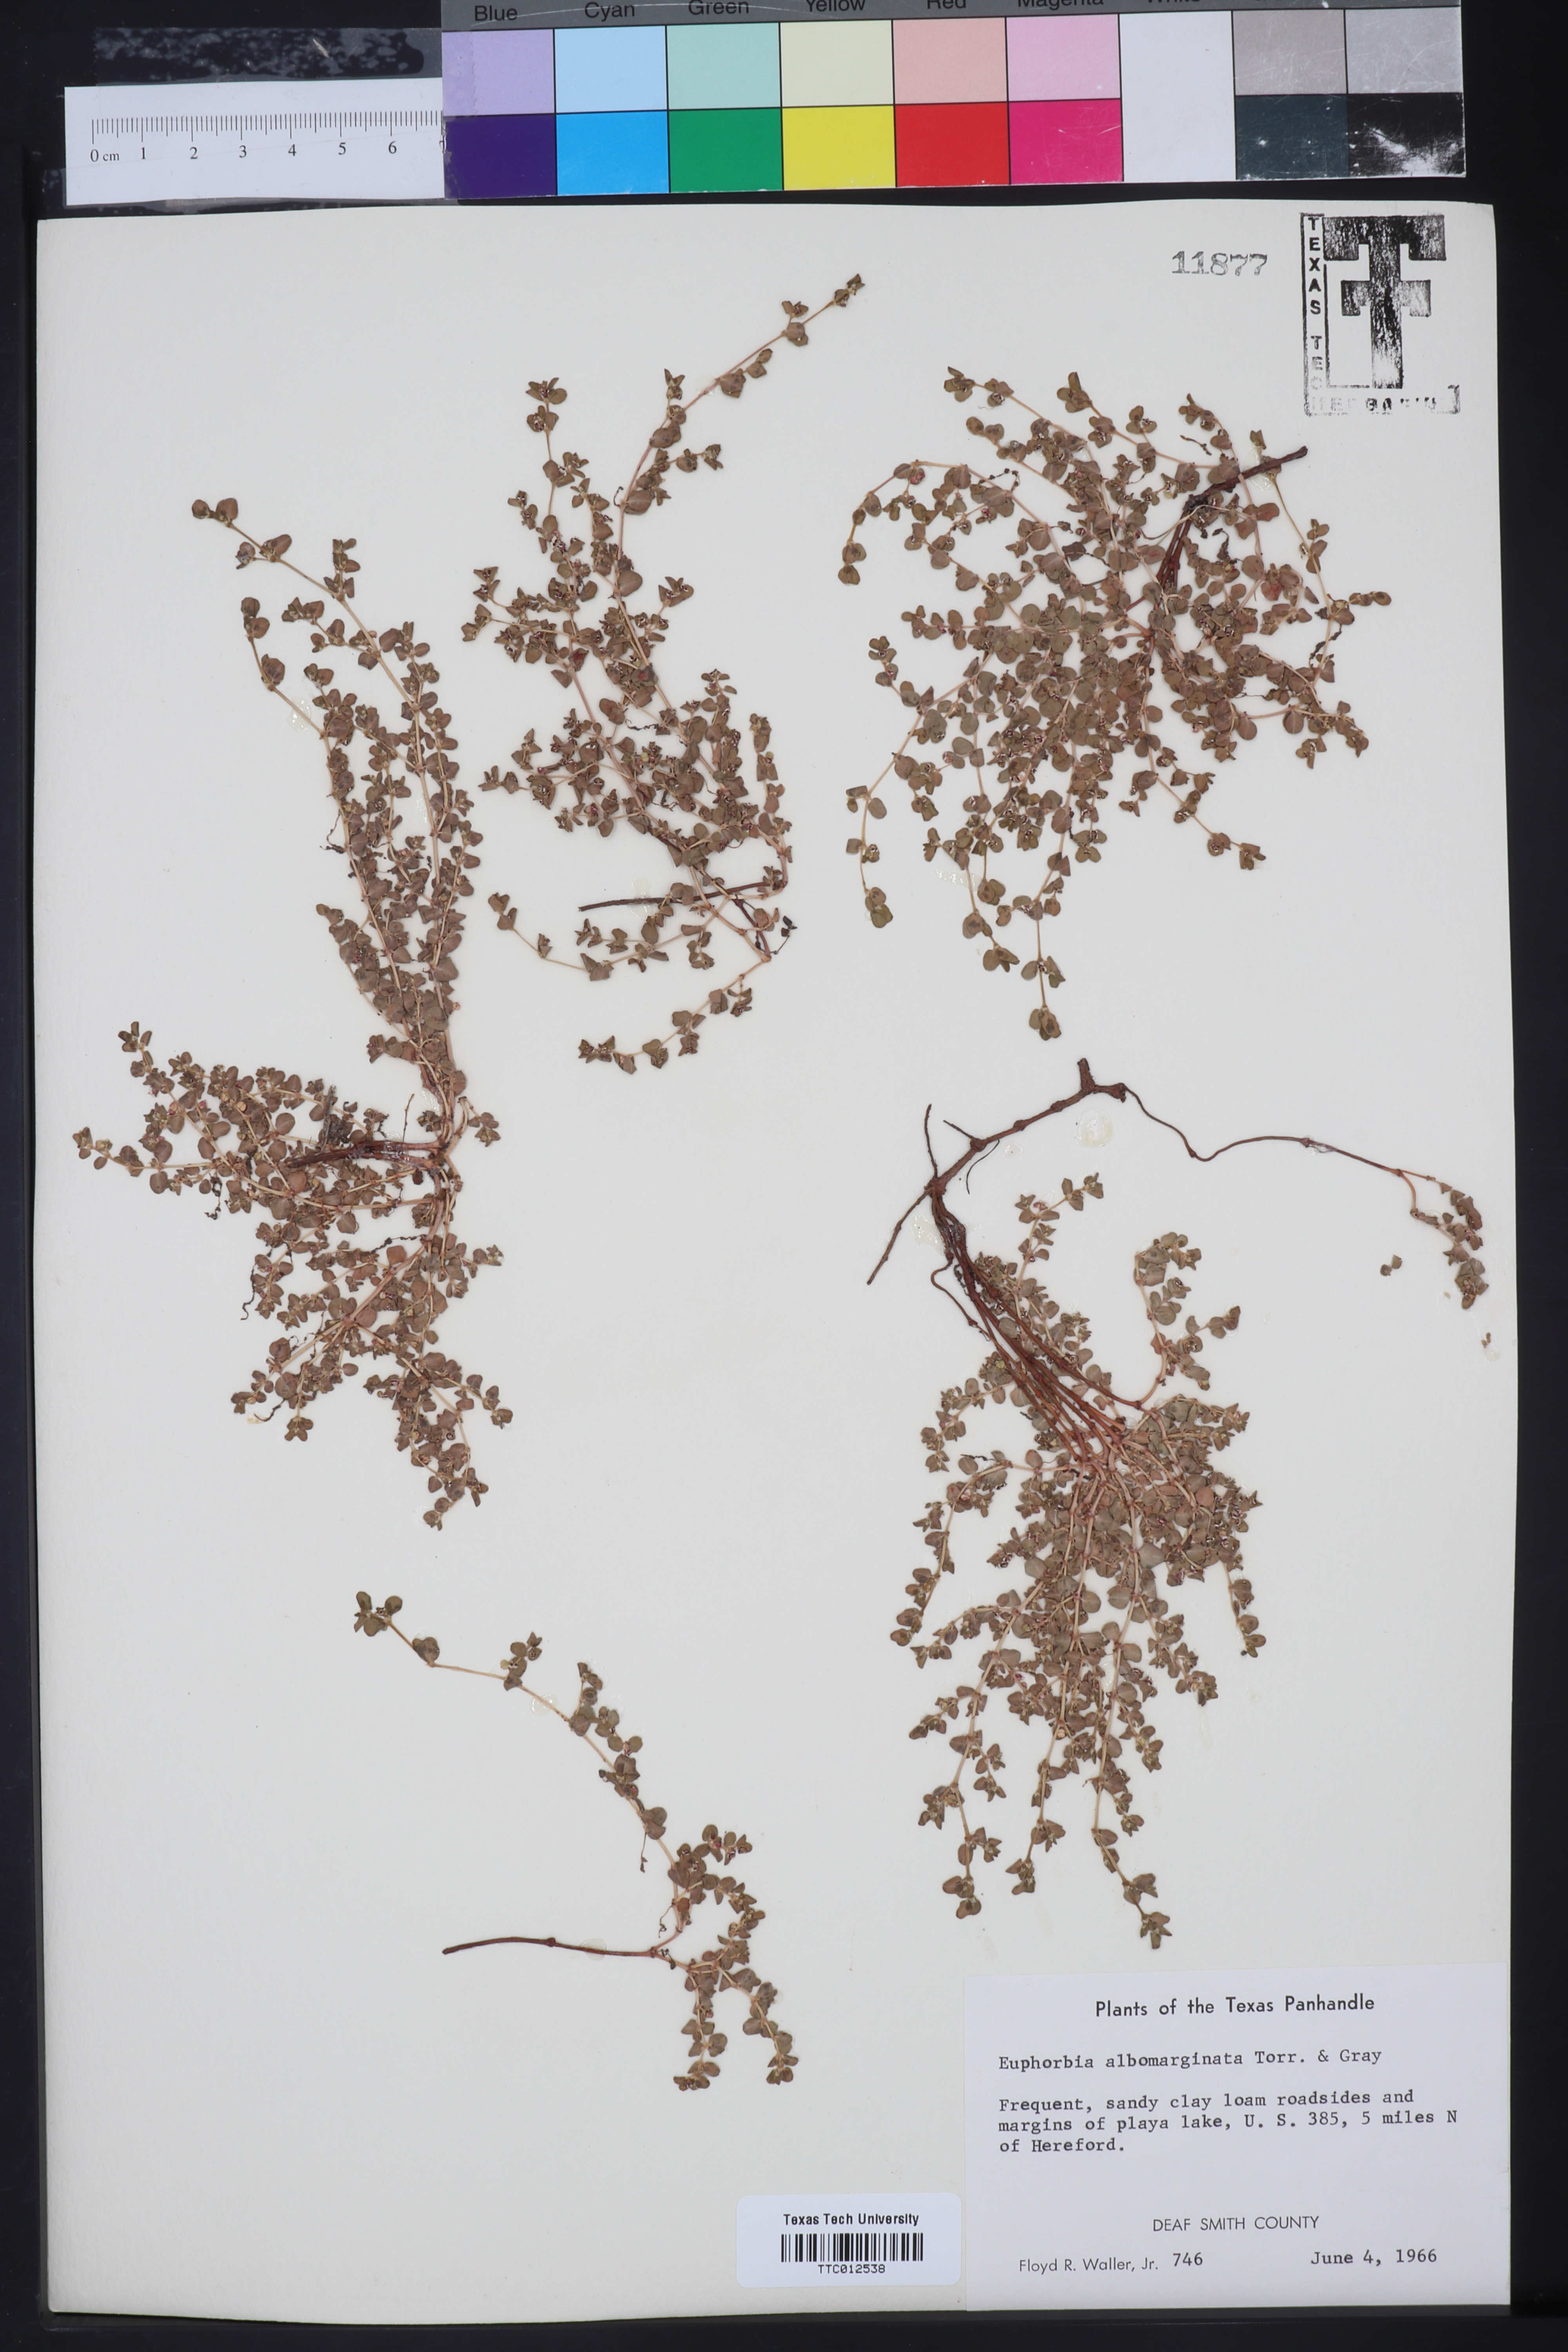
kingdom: Plantae
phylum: Tracheophyta
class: Magnoliopsida
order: Malpighiales
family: Euphorbiaceae
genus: Euphorbia
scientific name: Euphorbia albomarginata
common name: Whitemargin sandmat
